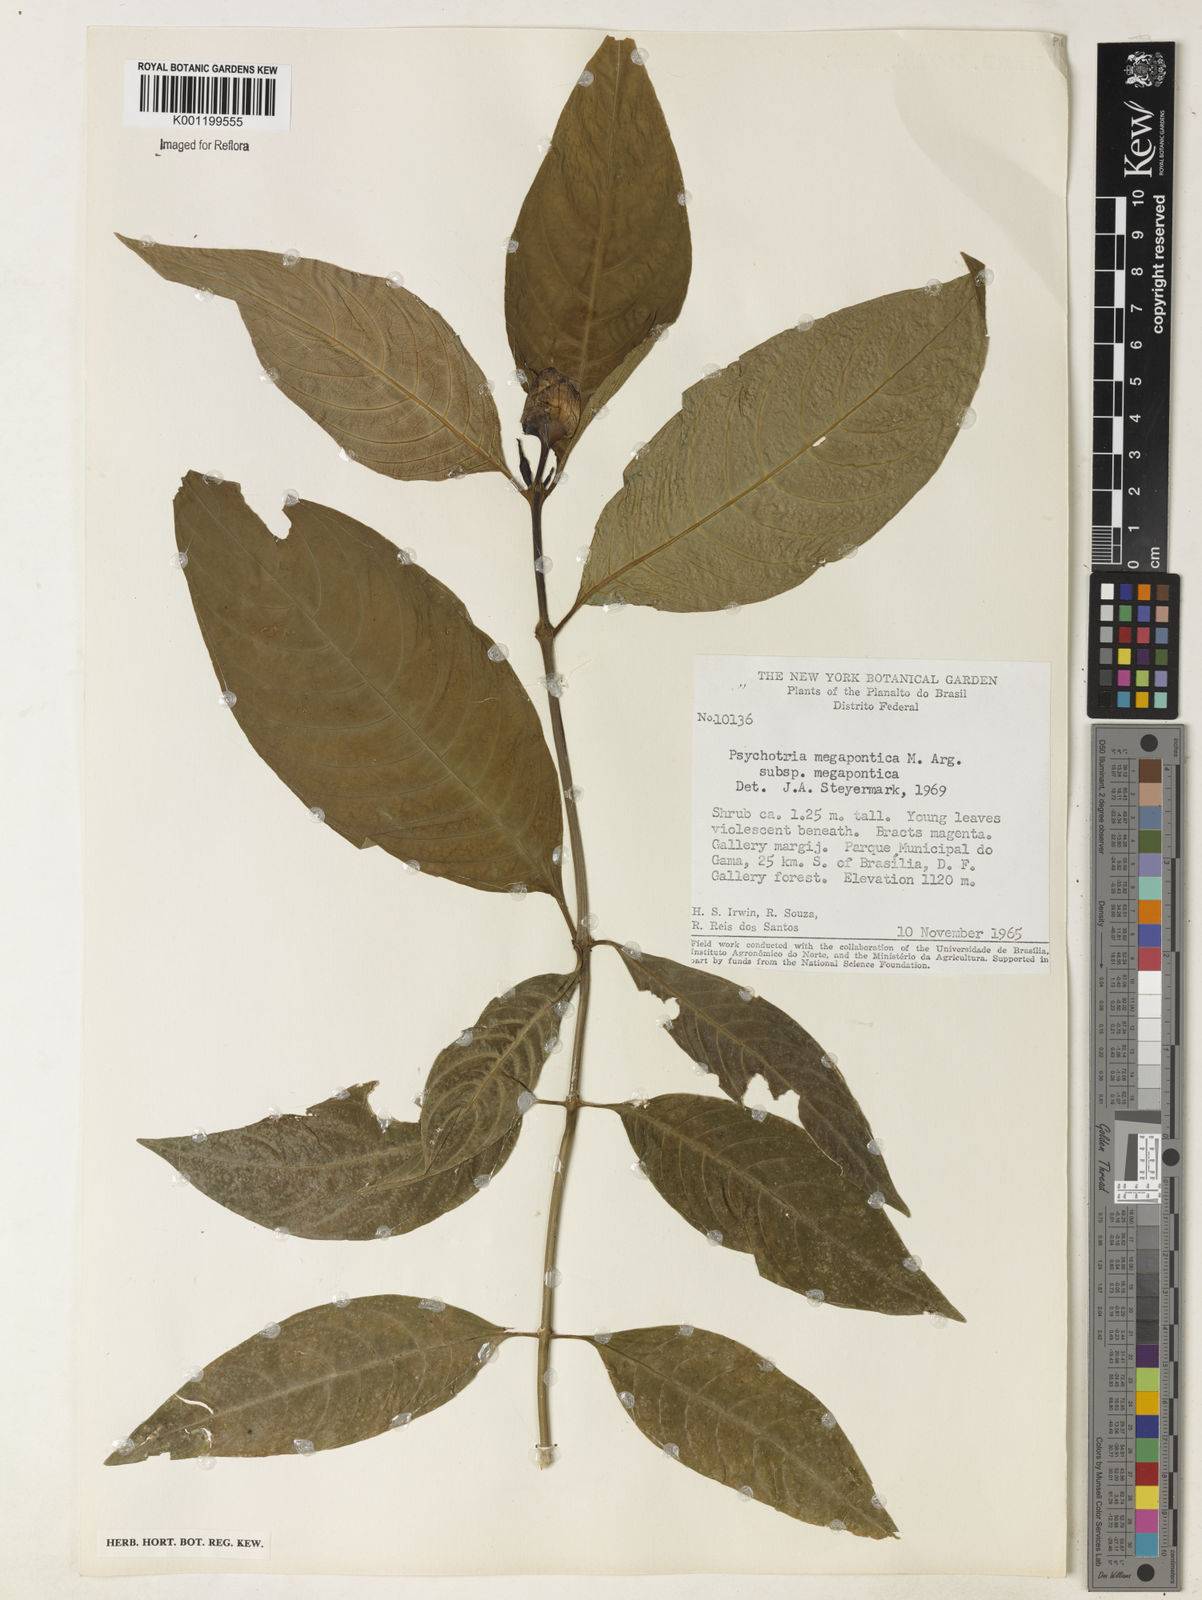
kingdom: Plantae
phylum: Tracheophyta
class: Magnoliopsida
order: Gentianales
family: Rubiaceae
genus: Psychotria
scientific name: Psychotria
